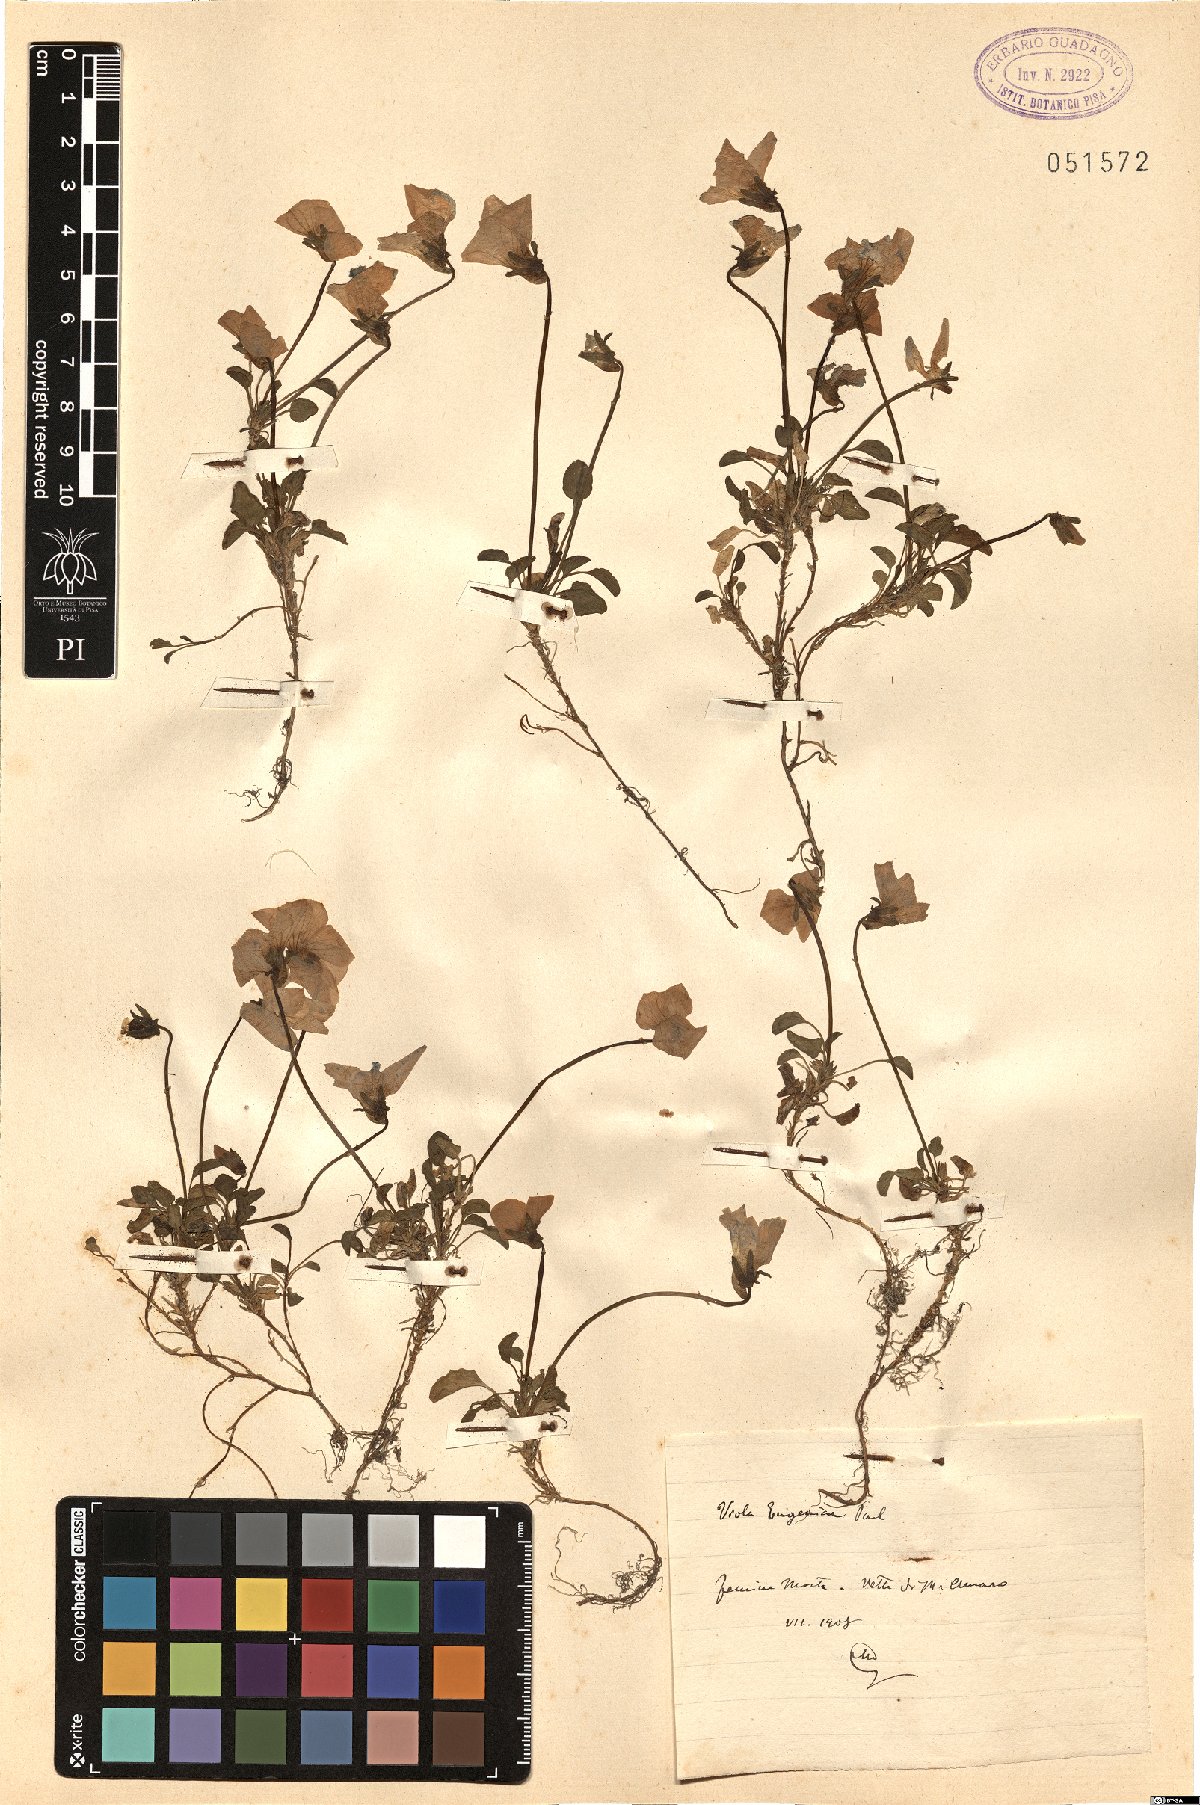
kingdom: Plantae
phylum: Tracheophyta
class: Magnoliopsida
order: Malpighiales
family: Violaceae
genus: Viola
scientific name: Viola eugeniae
